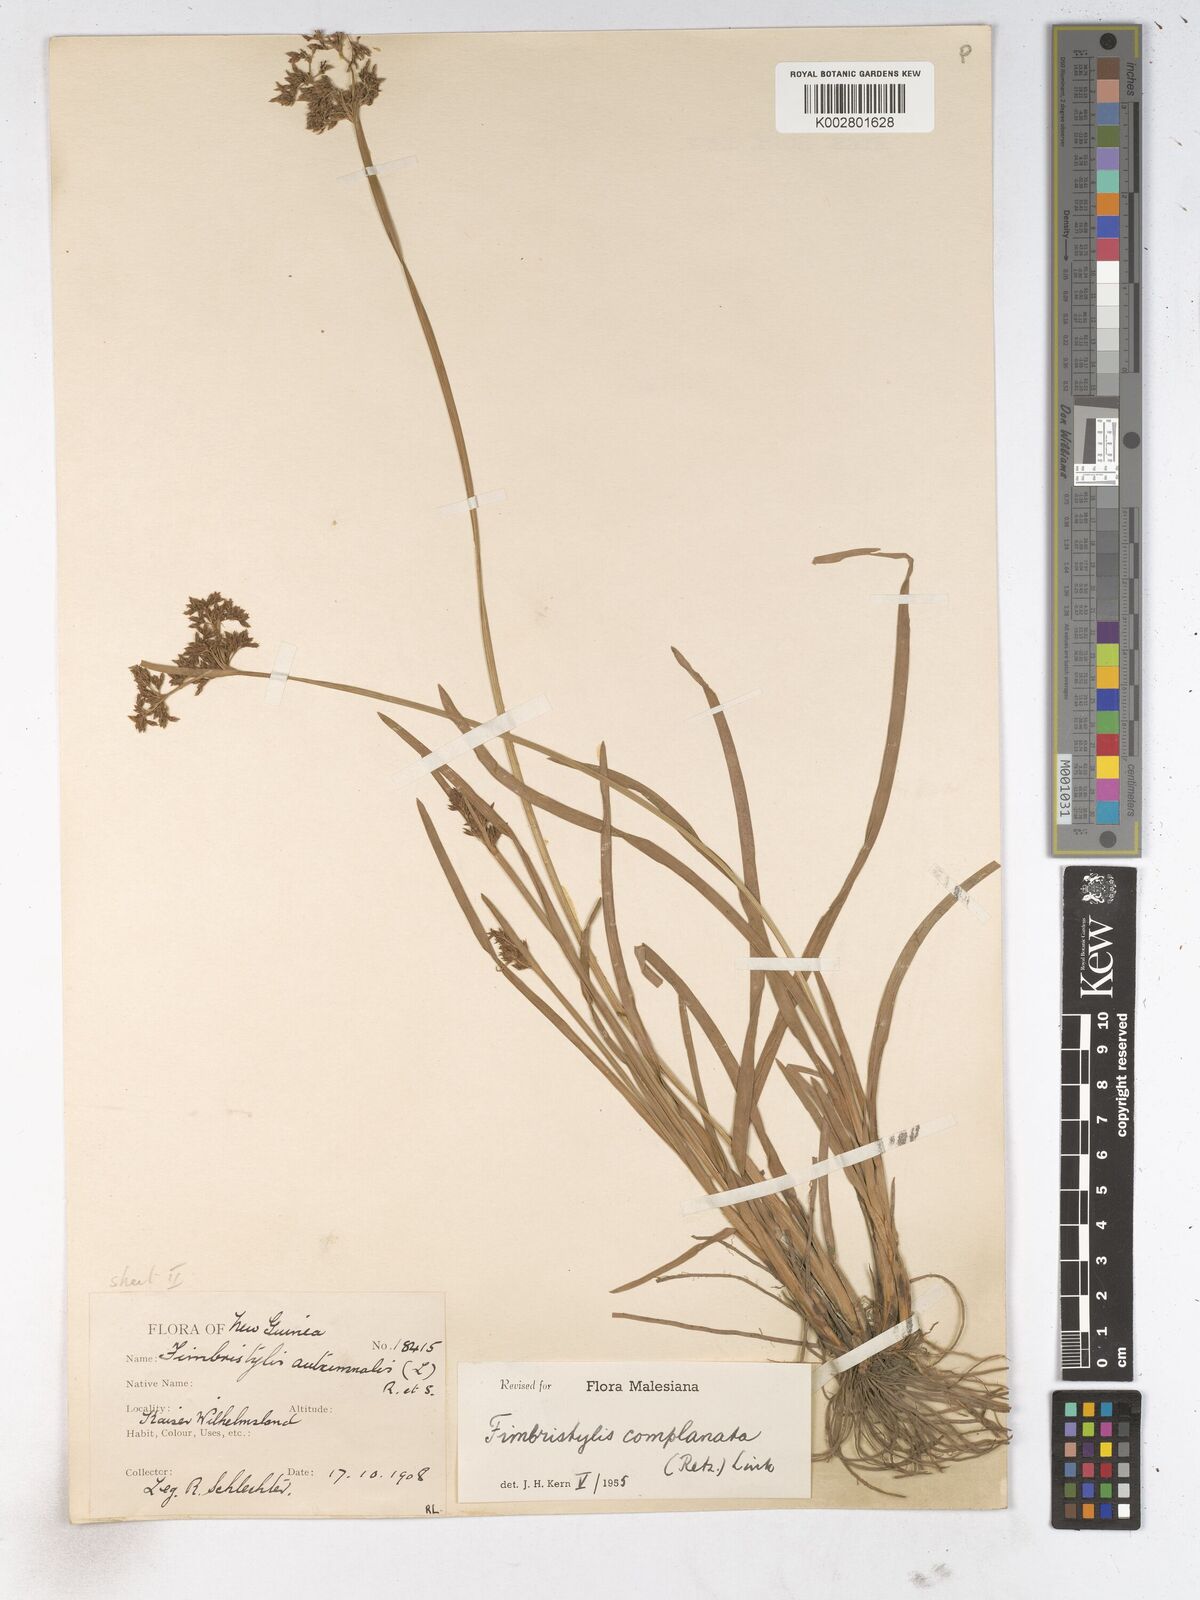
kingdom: Plantae
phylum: Tracheophyta
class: Liliopsida
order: Poales
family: Cyperaceae
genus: Fimbristylis
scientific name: Fimbristylis complanata
